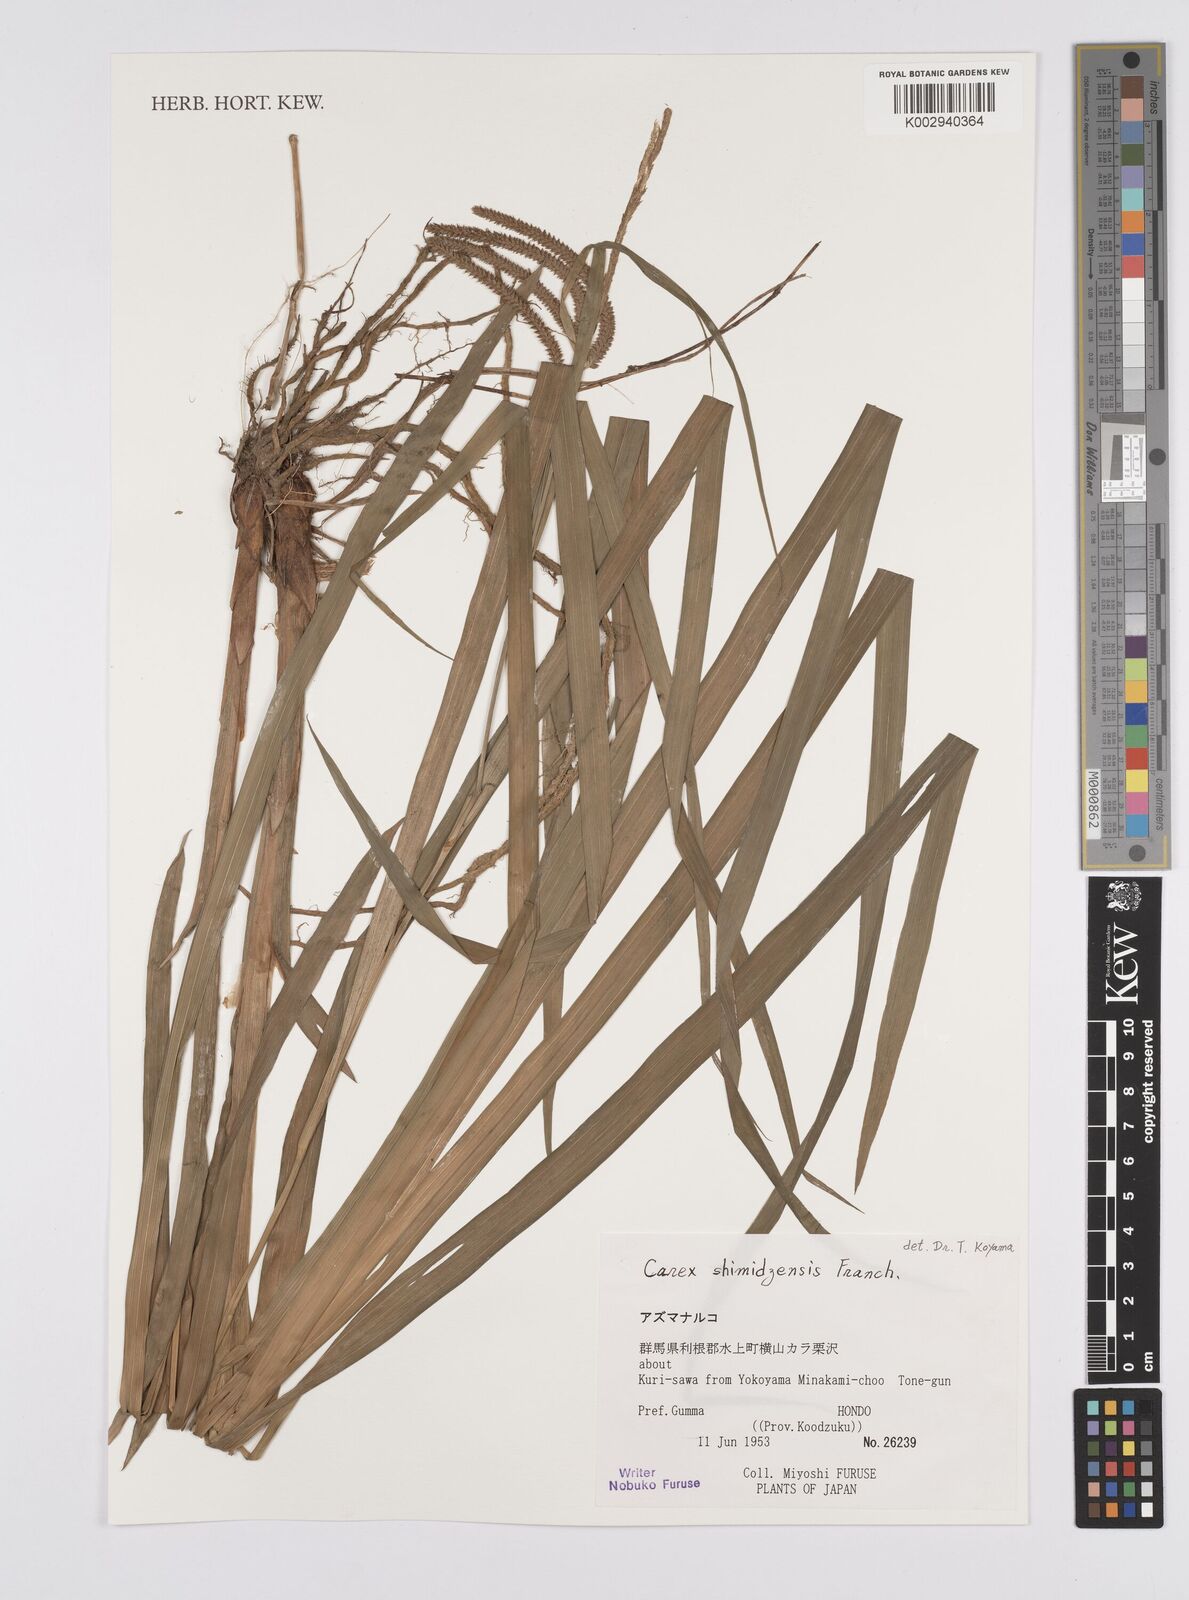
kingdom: Plantae
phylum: Tracheophyta
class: Liliopsida
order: Poales
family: Cyperaceae
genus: Carex
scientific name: Carex shimidzensis
